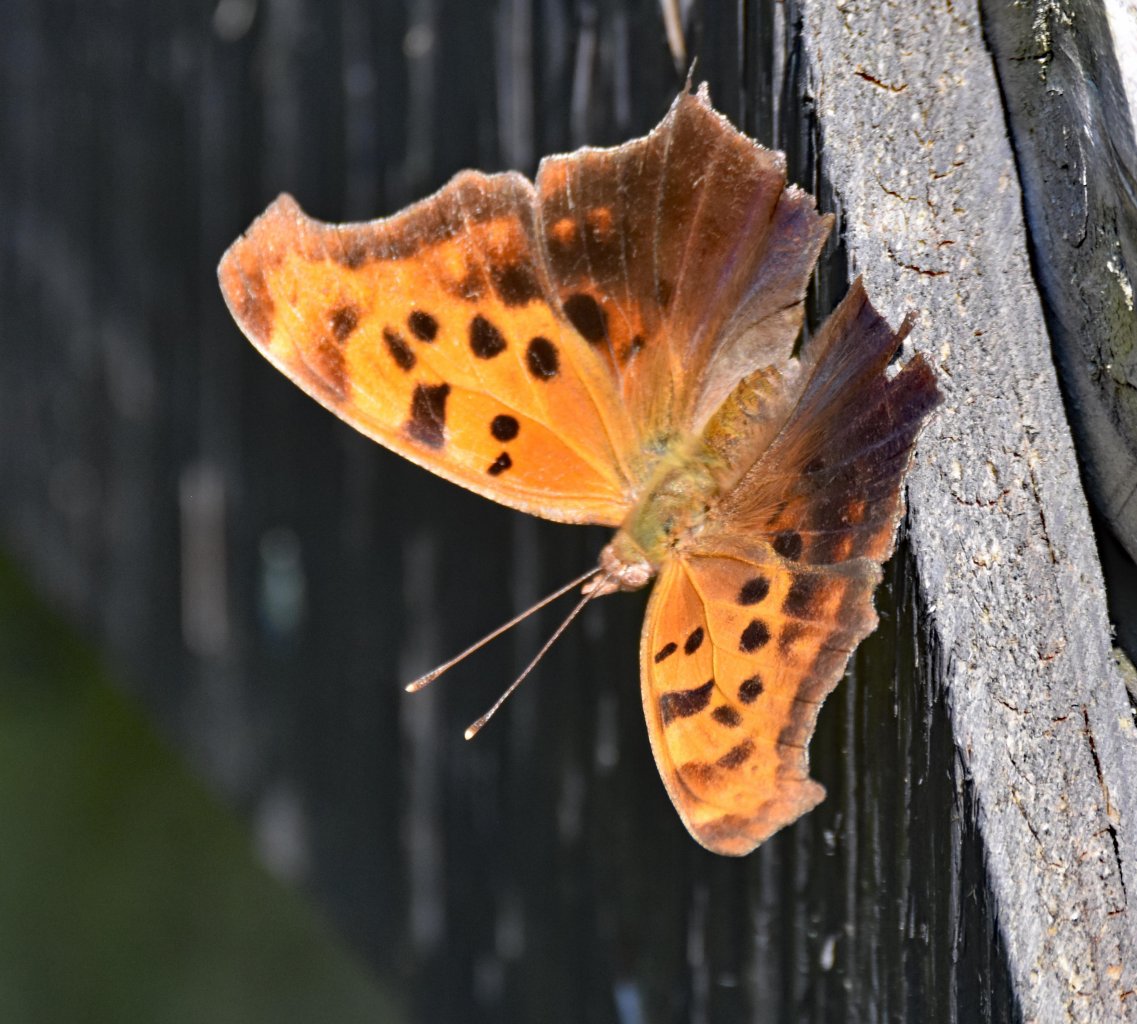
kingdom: Animalia
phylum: Arthropoda
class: Insecta
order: Lepidoptera
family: Nymphalidae
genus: Polygonia
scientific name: Polygonia interrogationis
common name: Question Mark
